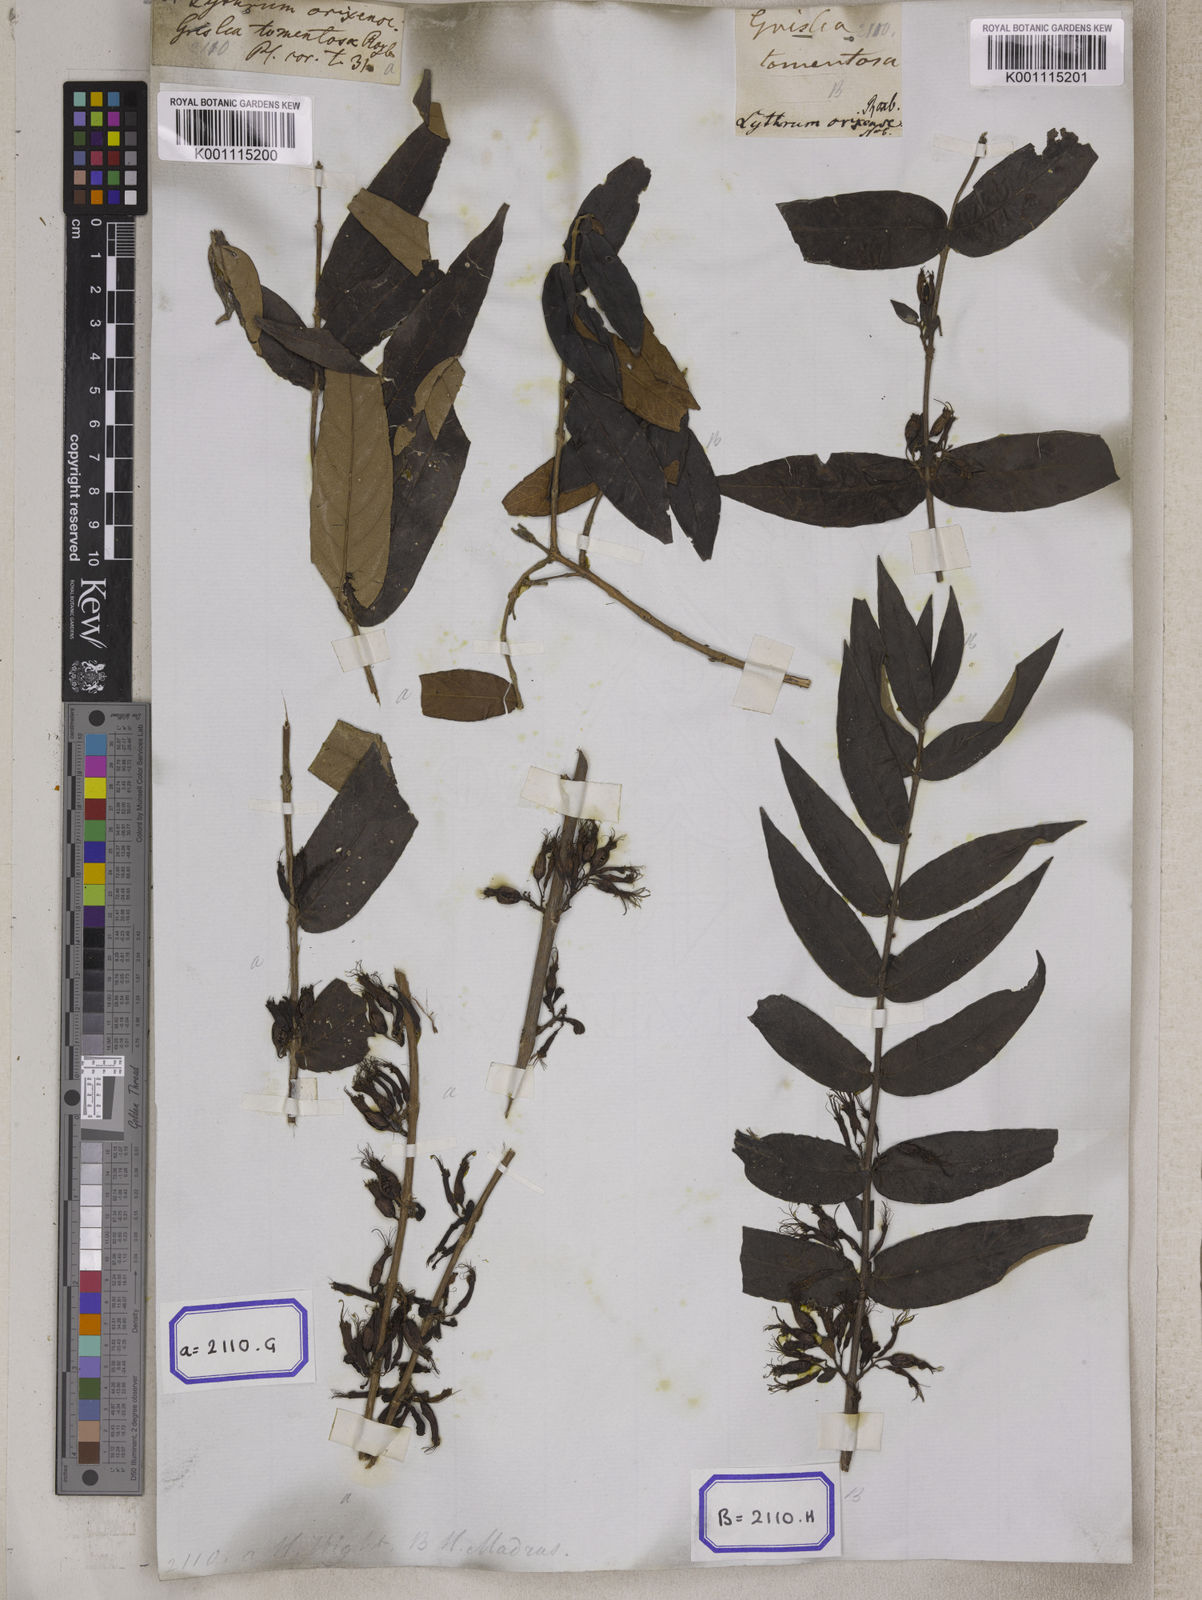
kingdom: Plantae
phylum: Tracheophyta
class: Magnoliopsida
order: Myrtales
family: Combretaceae
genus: Combretum
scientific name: Combretum
